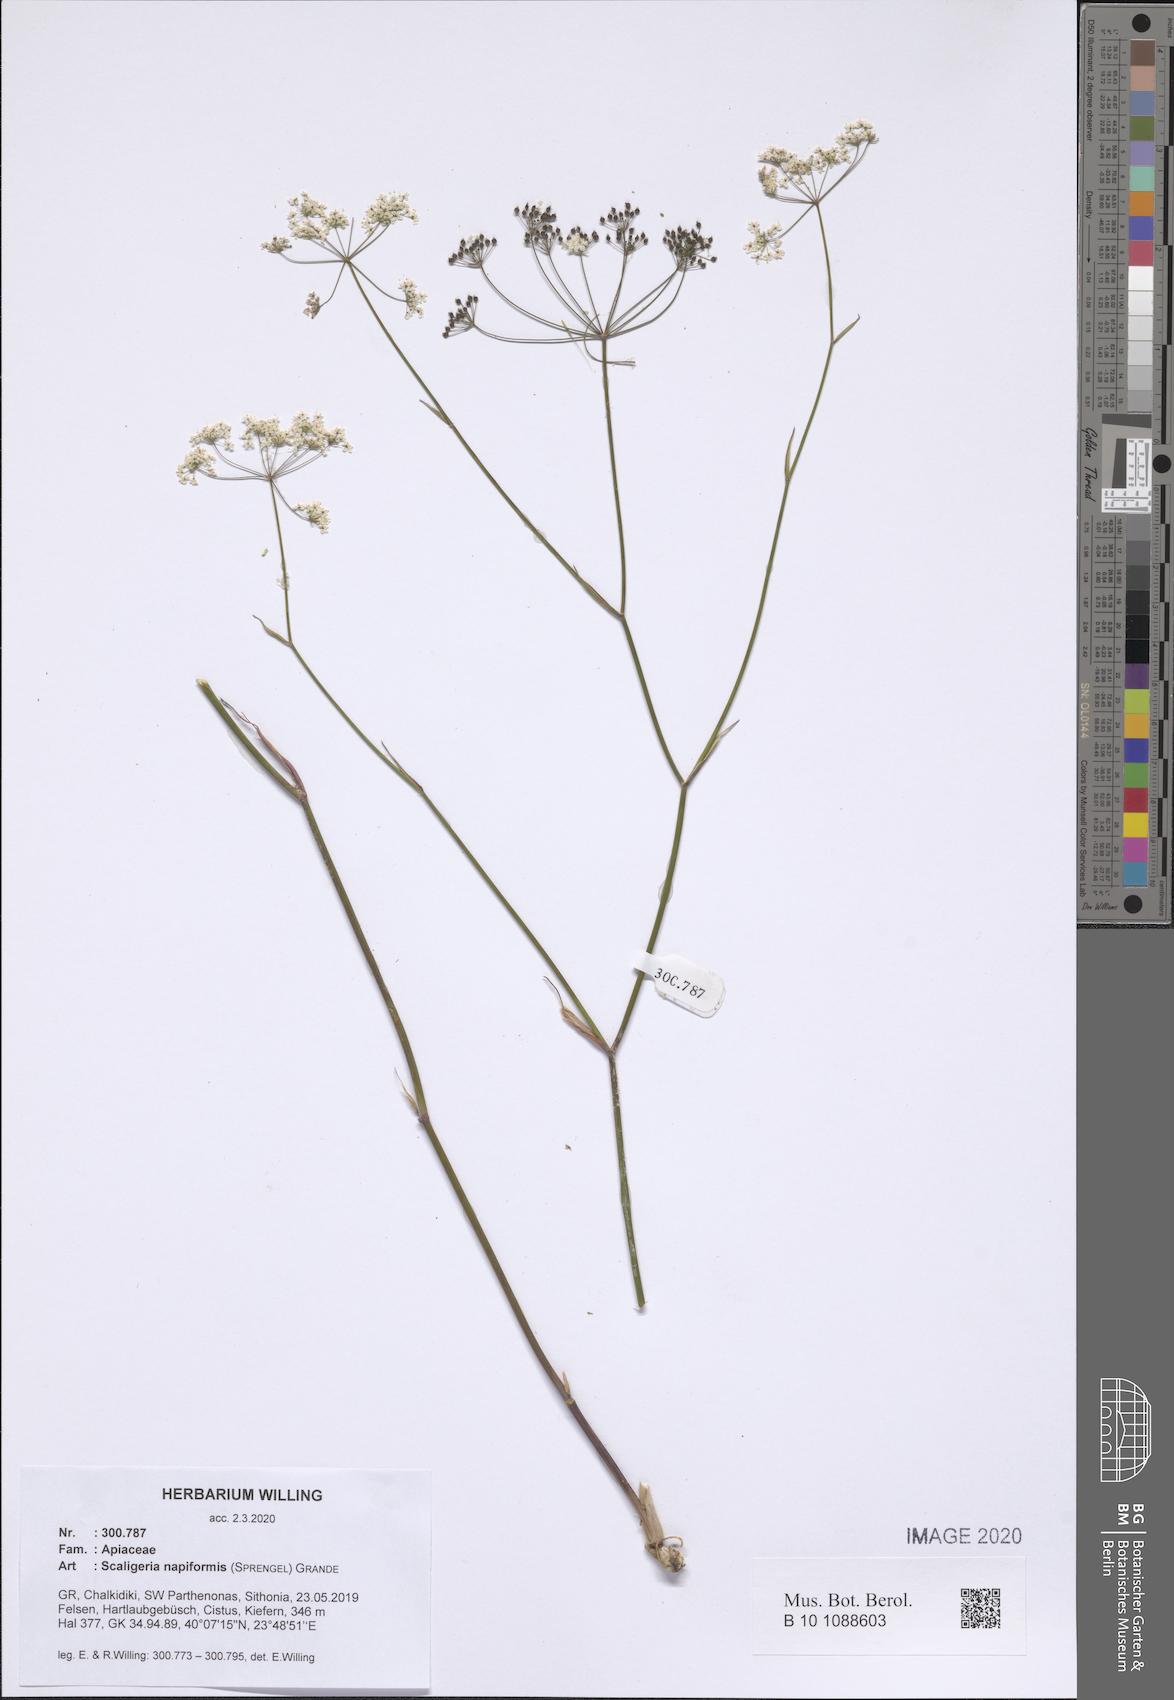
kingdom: Plantae
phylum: Tracheophyta
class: Magnoliopsida
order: Apiales
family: Apiaceae
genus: Scaligeria
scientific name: Scaligeria napiformis
